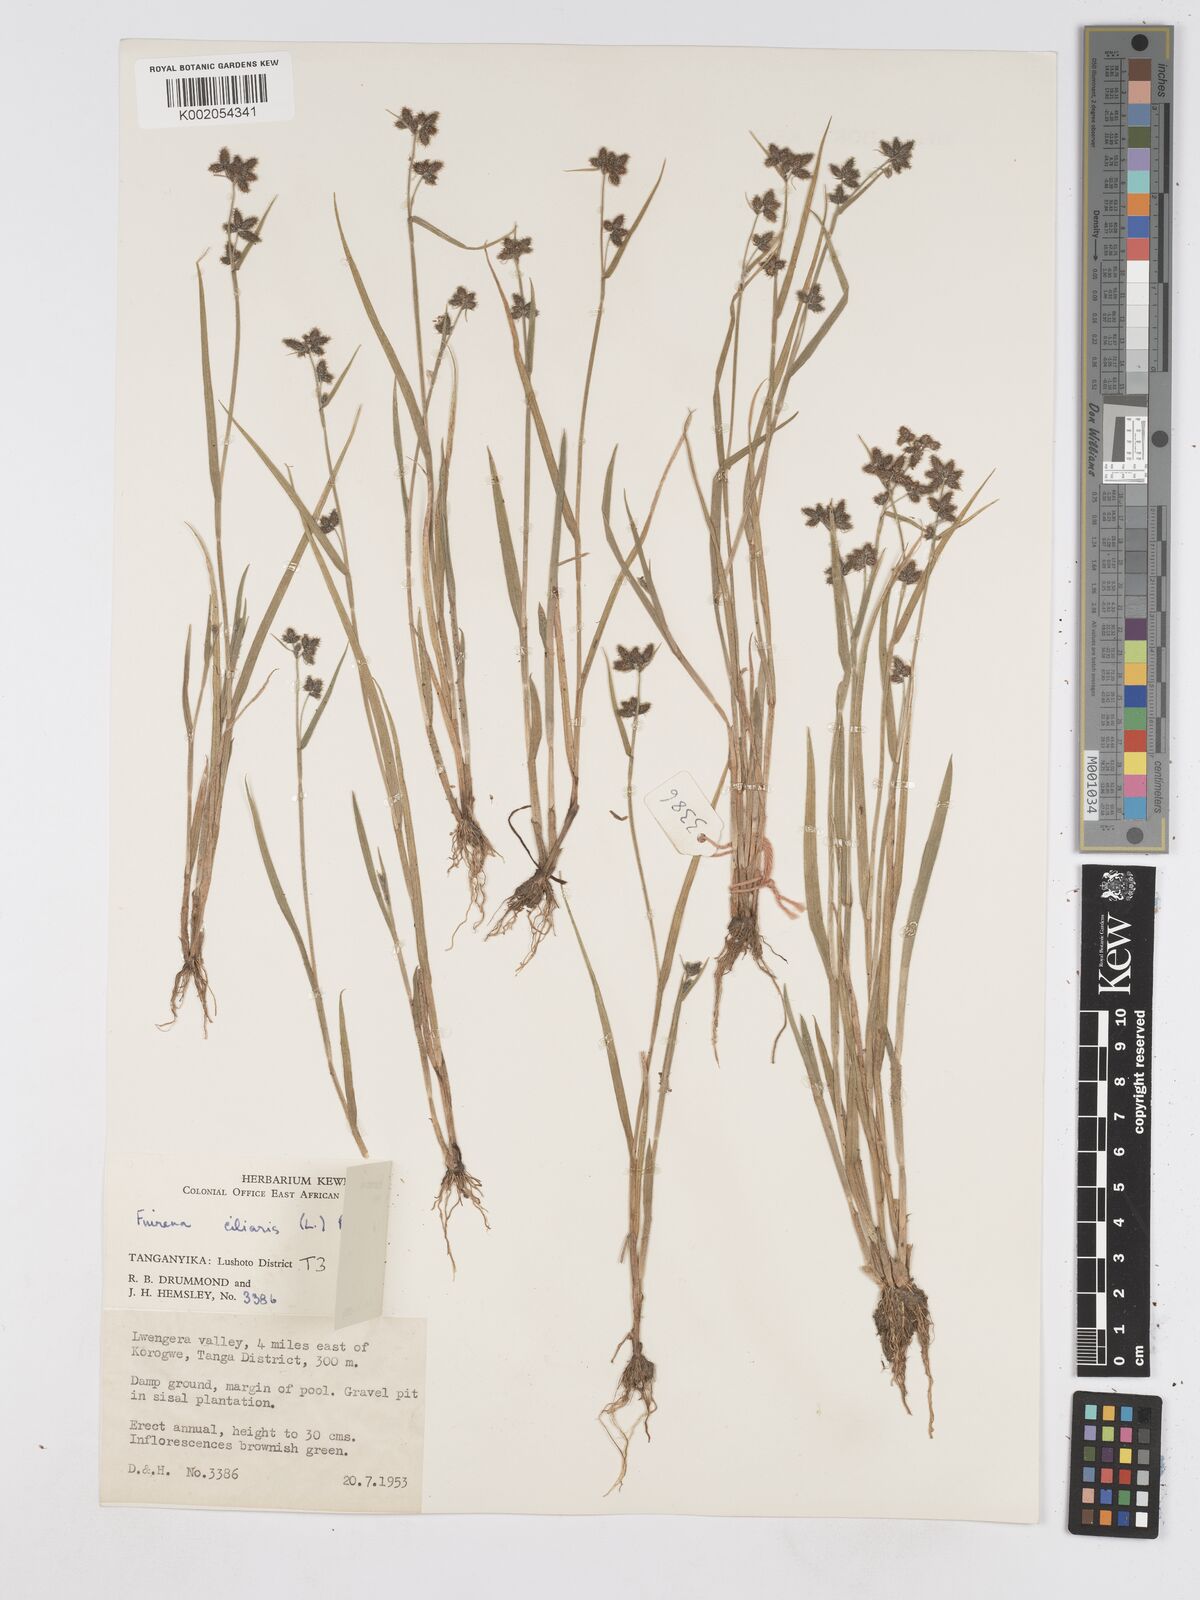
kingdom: Plantae
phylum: Tracheophyta
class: Liliopsida
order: Poales
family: Cyperaceae
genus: Fuirena
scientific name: Fuirena ciliaris
